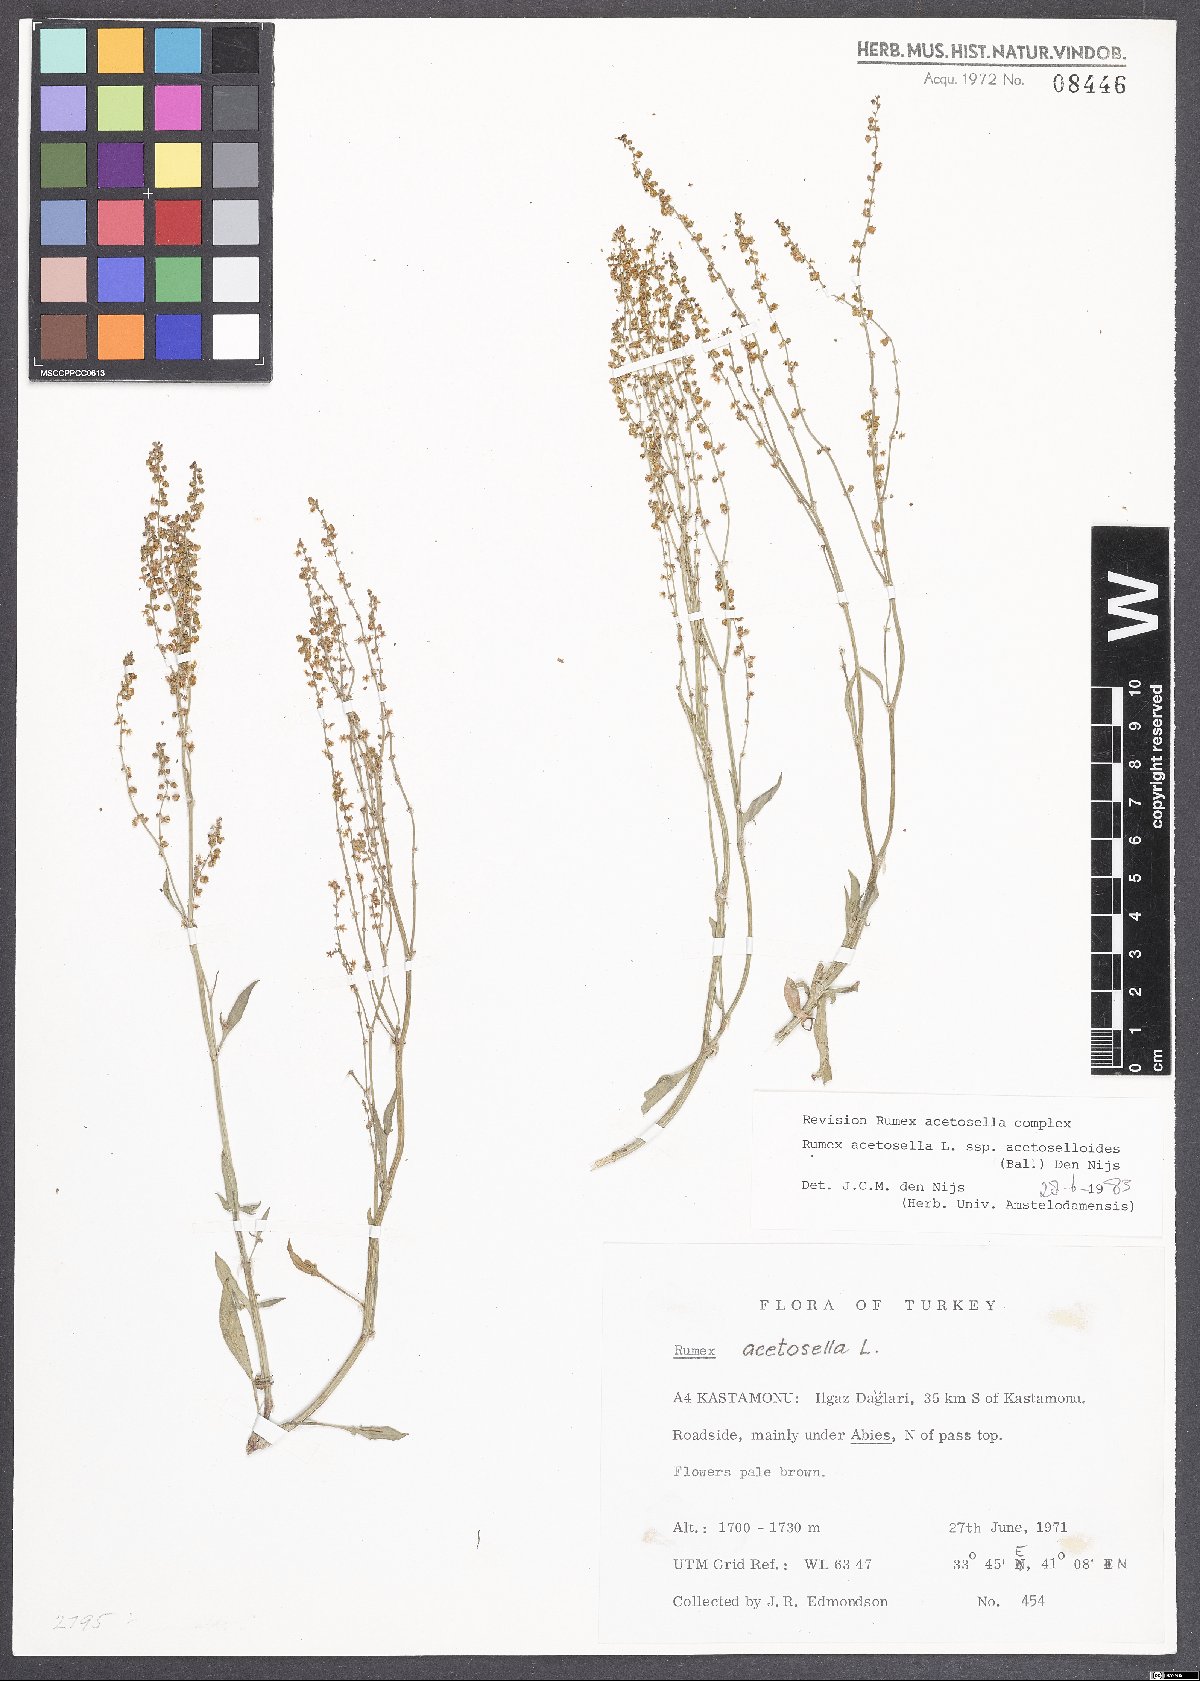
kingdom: Plantae
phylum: Tracheophyta
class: Magnoliopsida
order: Caryophyllales
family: Polygonaceae
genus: Rumex
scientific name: Rumex acetosella
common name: Common sheep sorrel
